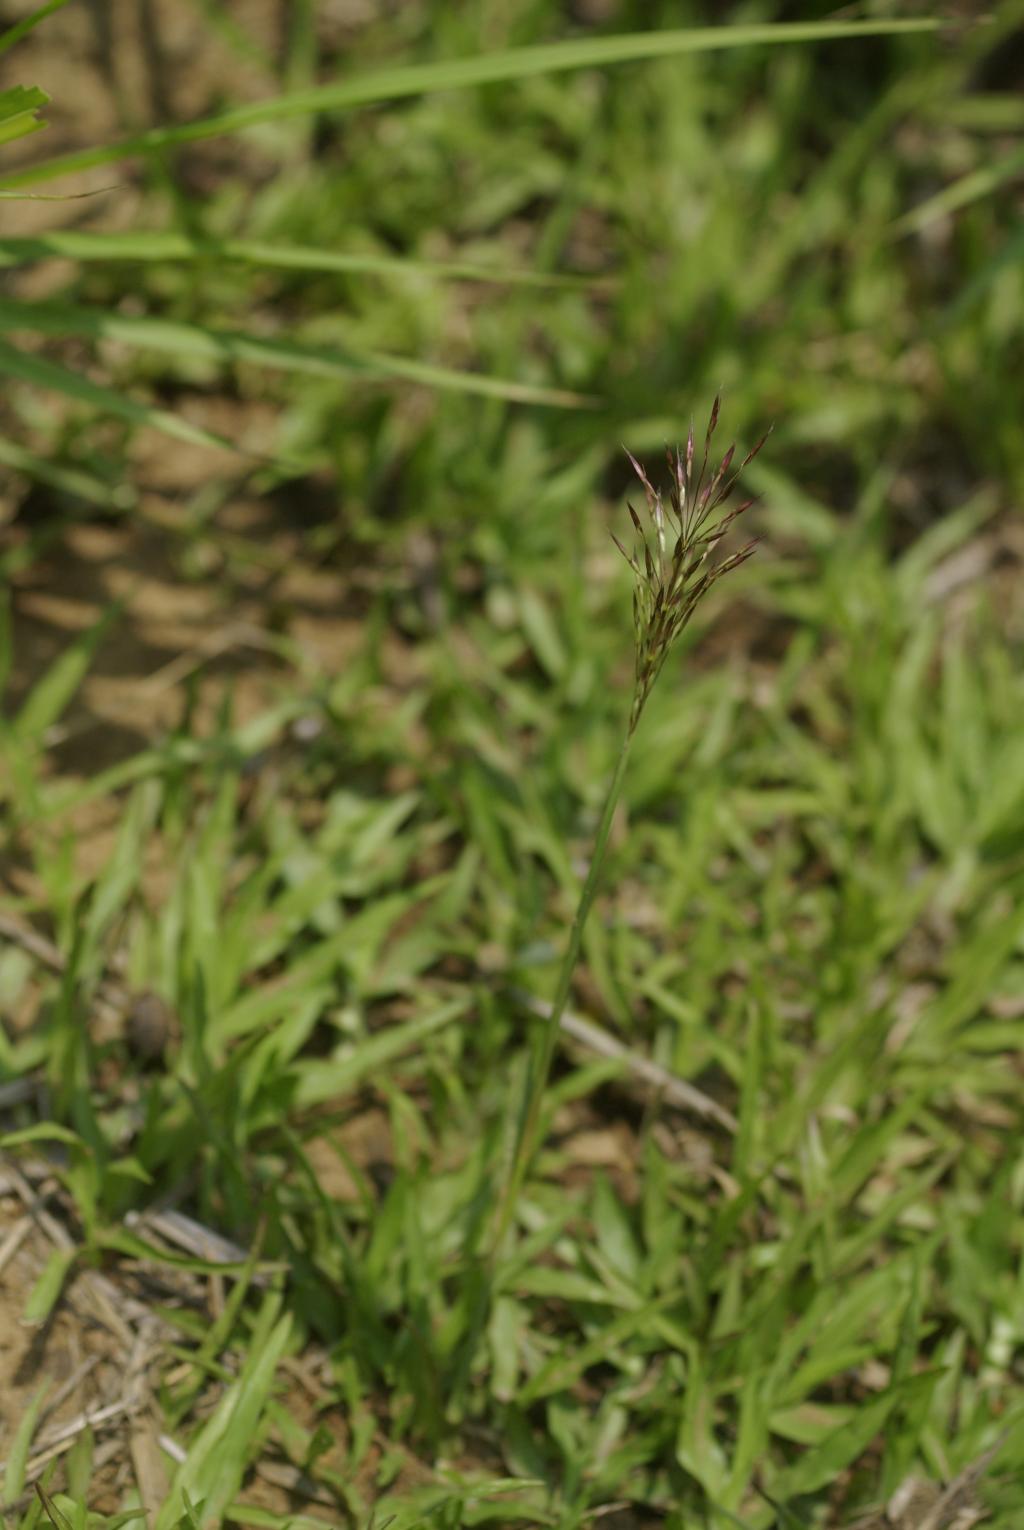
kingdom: Plantae
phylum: Tracheophyta
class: Liliopsida
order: Poales
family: Poaceae
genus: Chrysopogon
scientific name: Chrysopogon aciculatus
